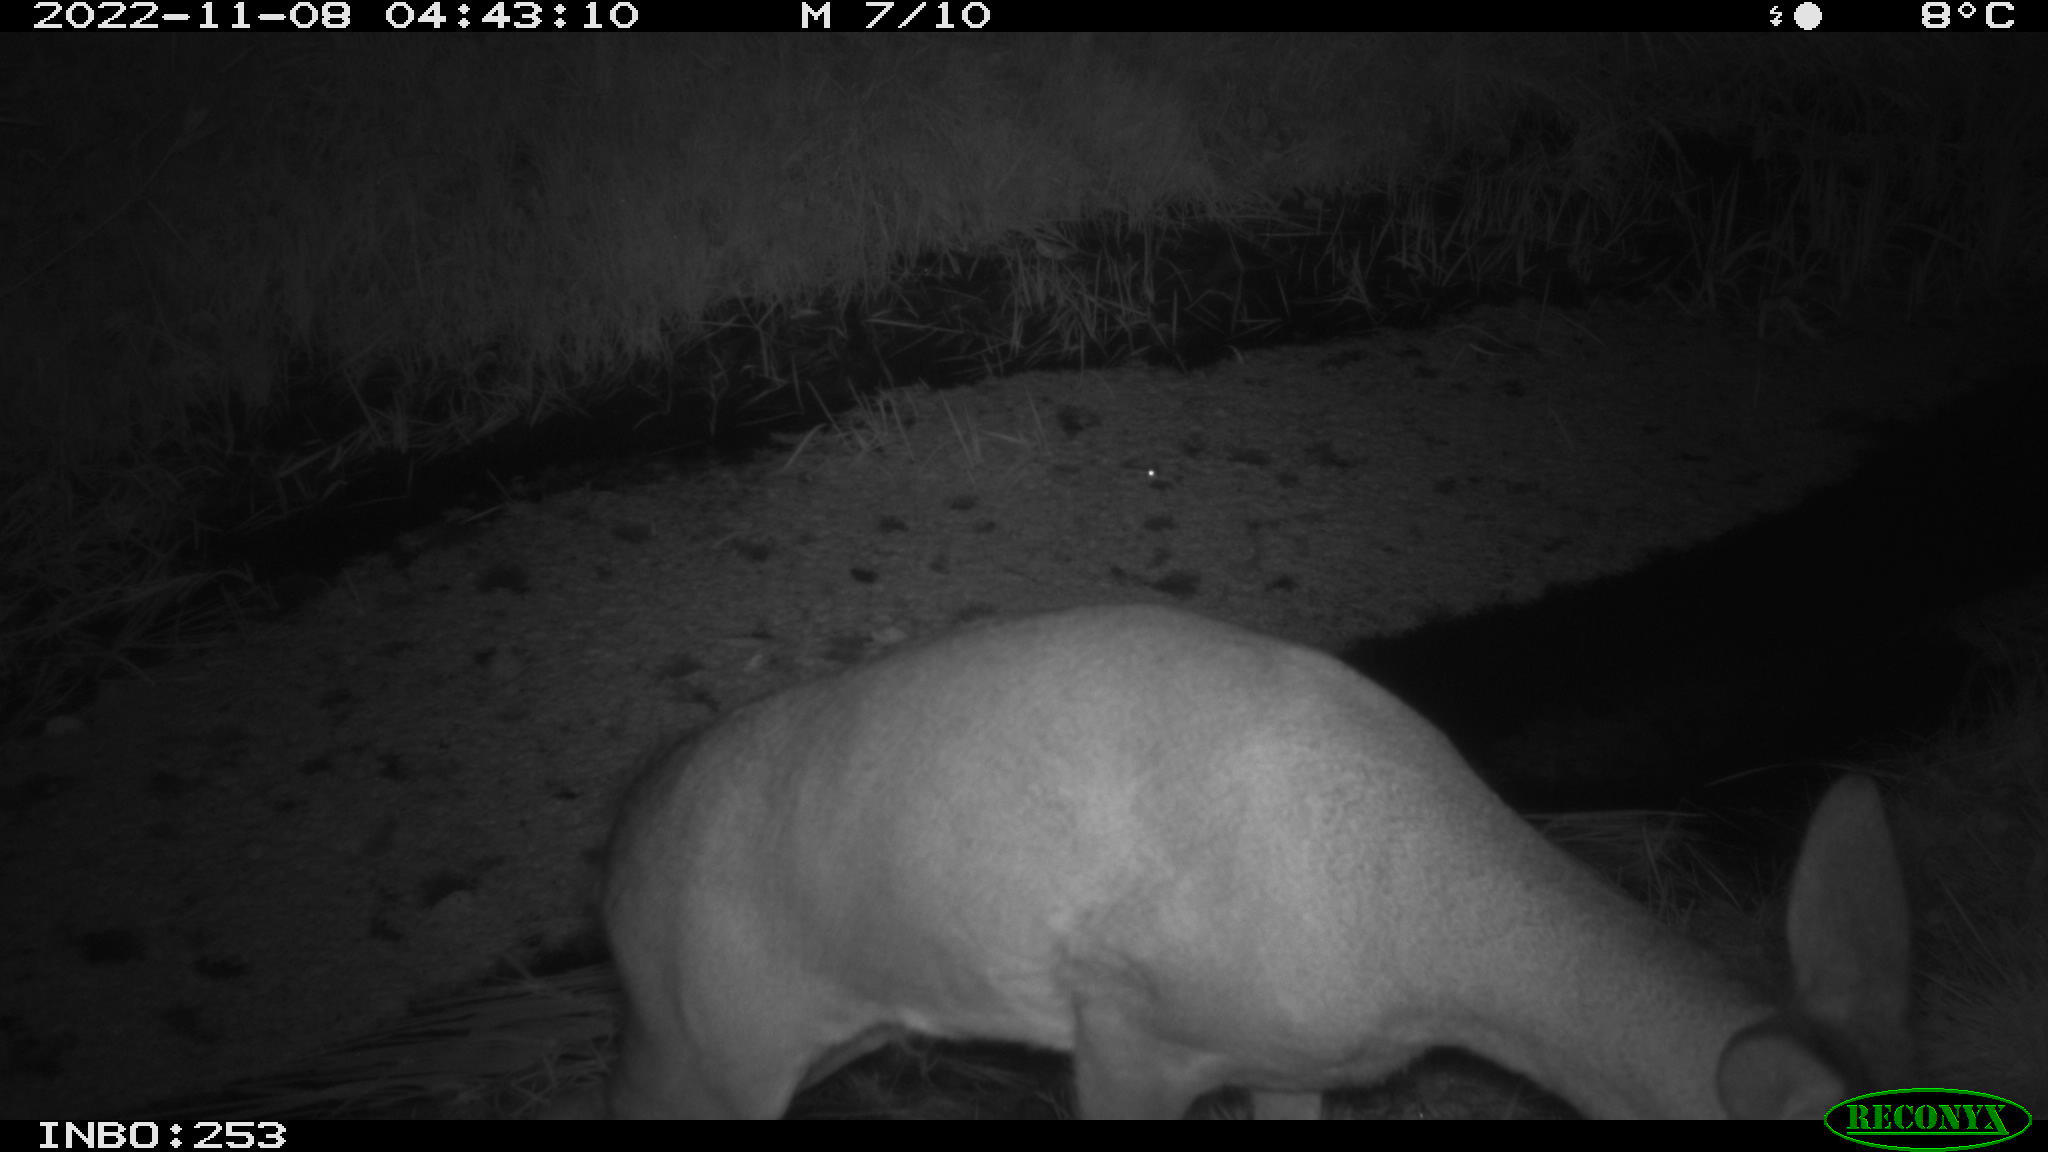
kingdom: Animalia
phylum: Chordata
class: Mammalia
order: Artiodactyla
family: Cervidae
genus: Capreolus
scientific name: Capreolus capreolus
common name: Western roe deer
